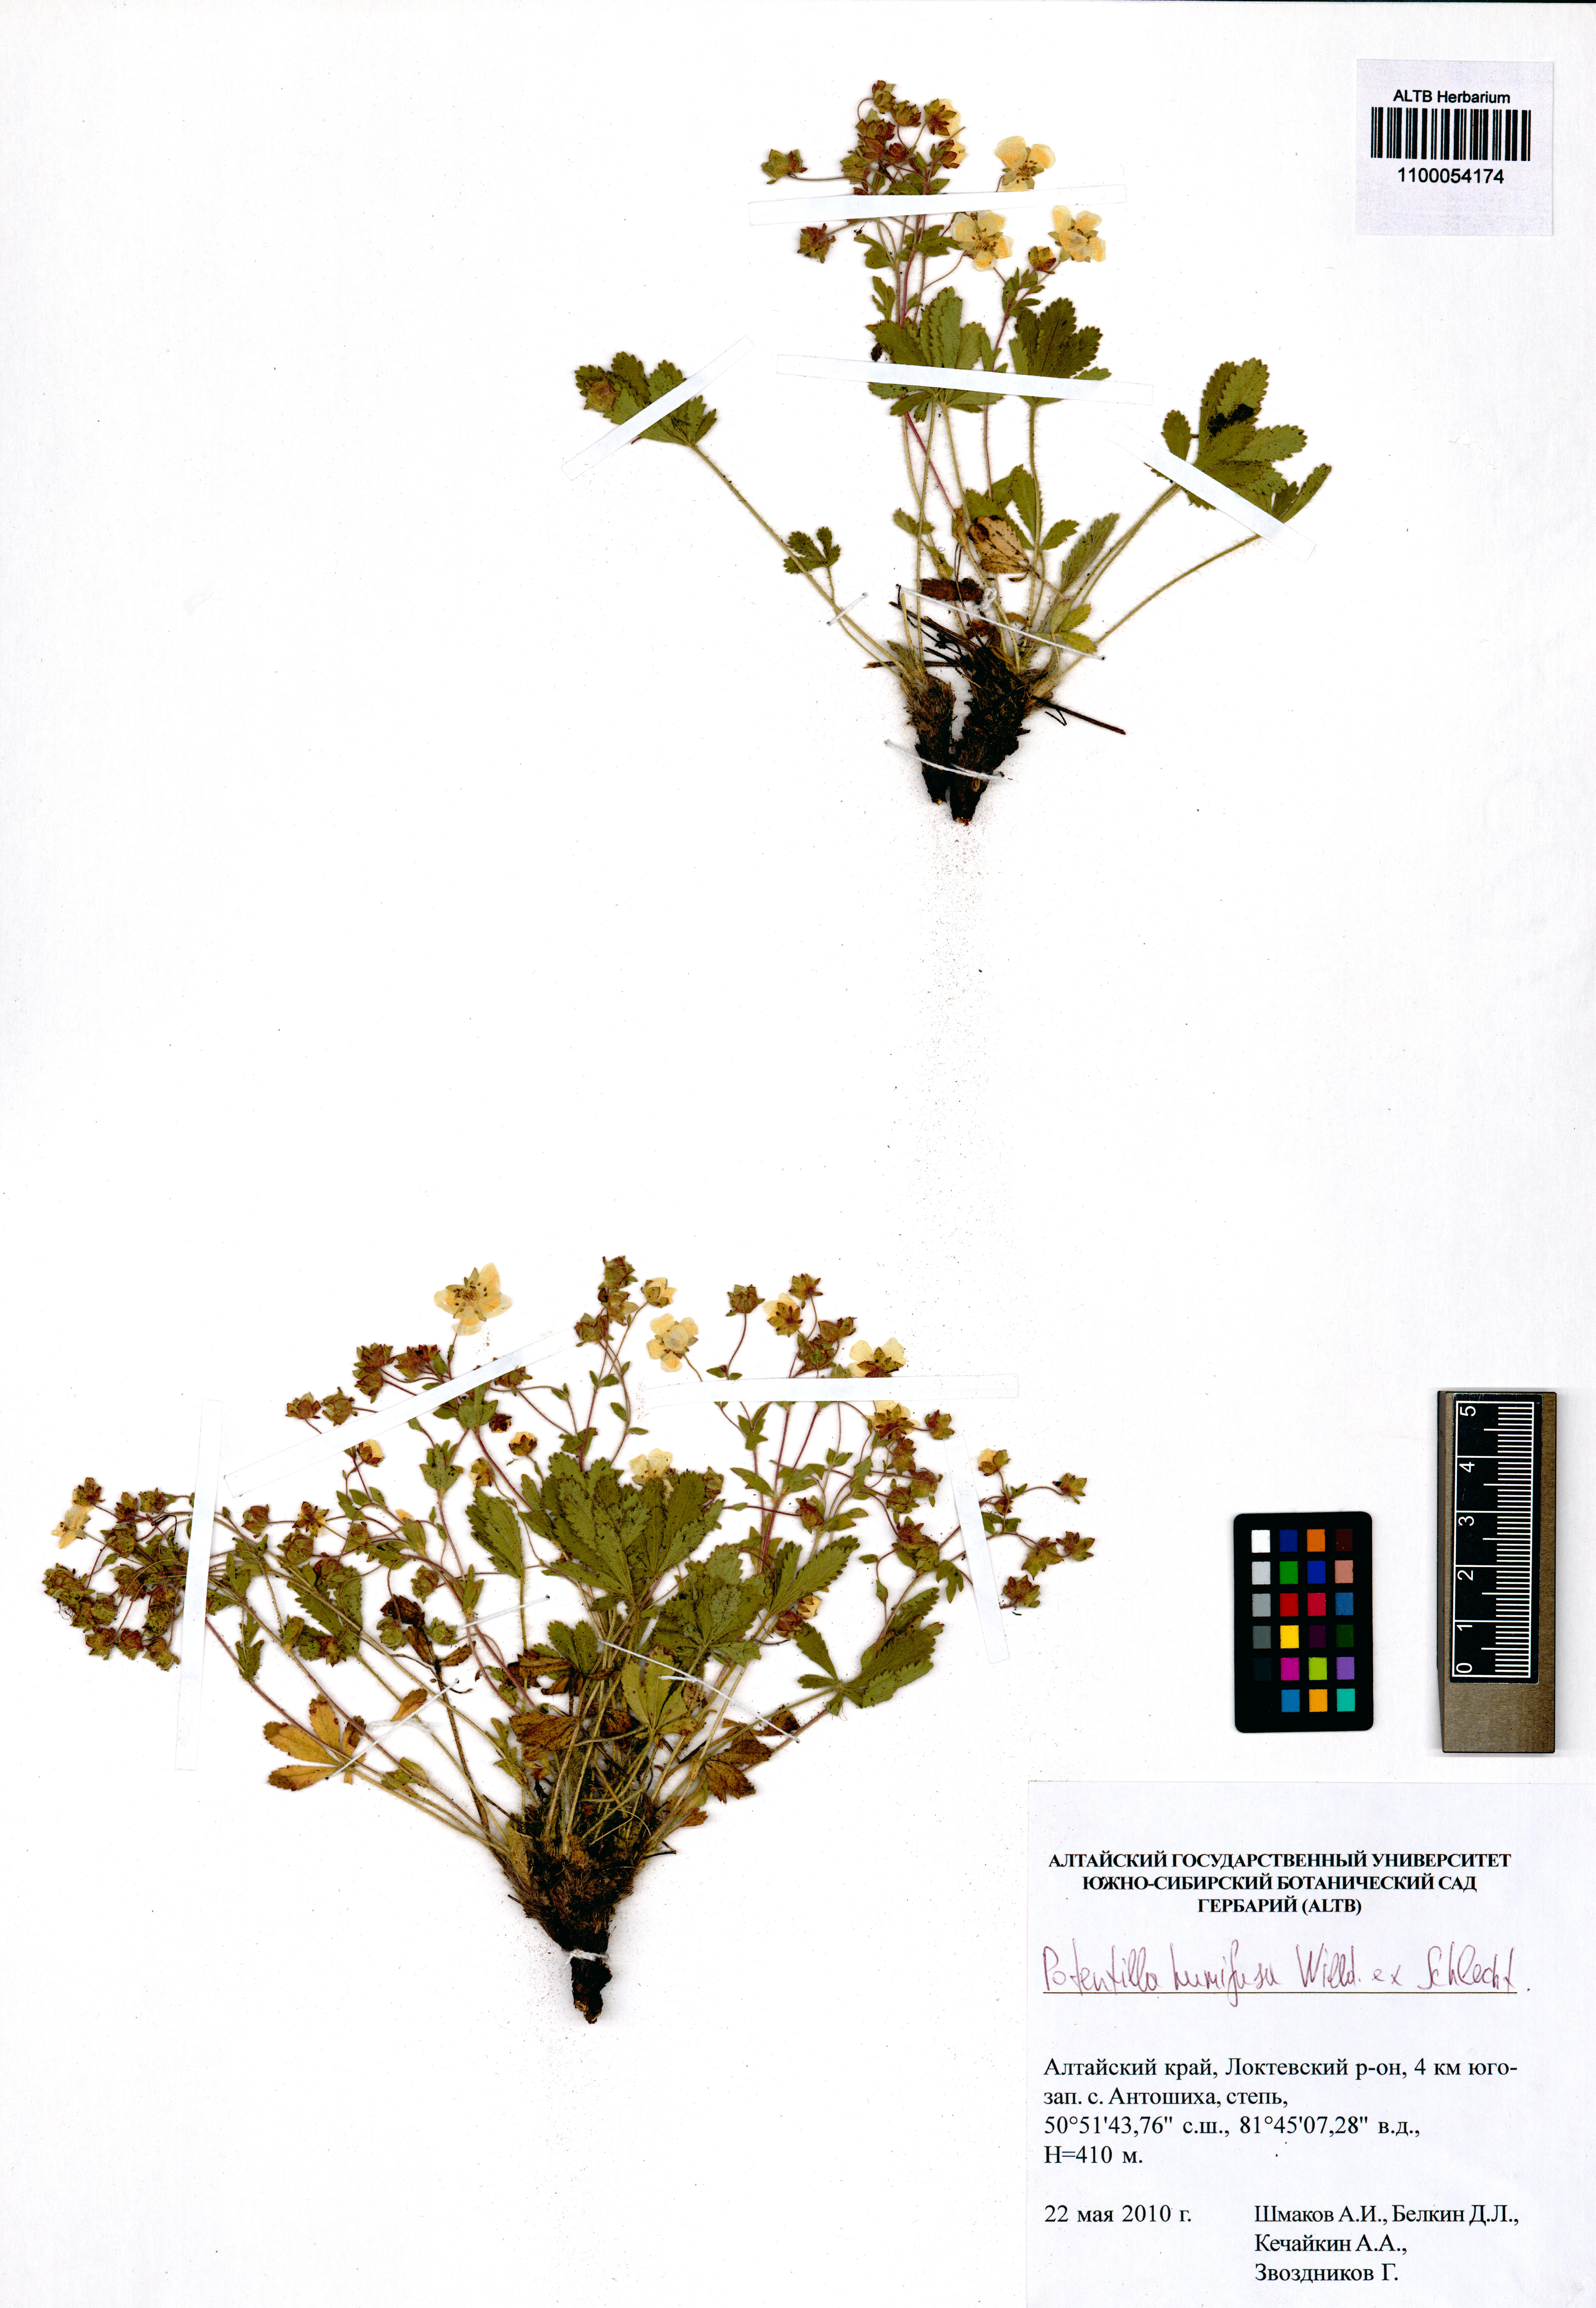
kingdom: Plantae
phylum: Tracheophyta
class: Magnoliopsida
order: Rosales
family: Rosaceae
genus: Potentilla
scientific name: Potentilla humifusa
